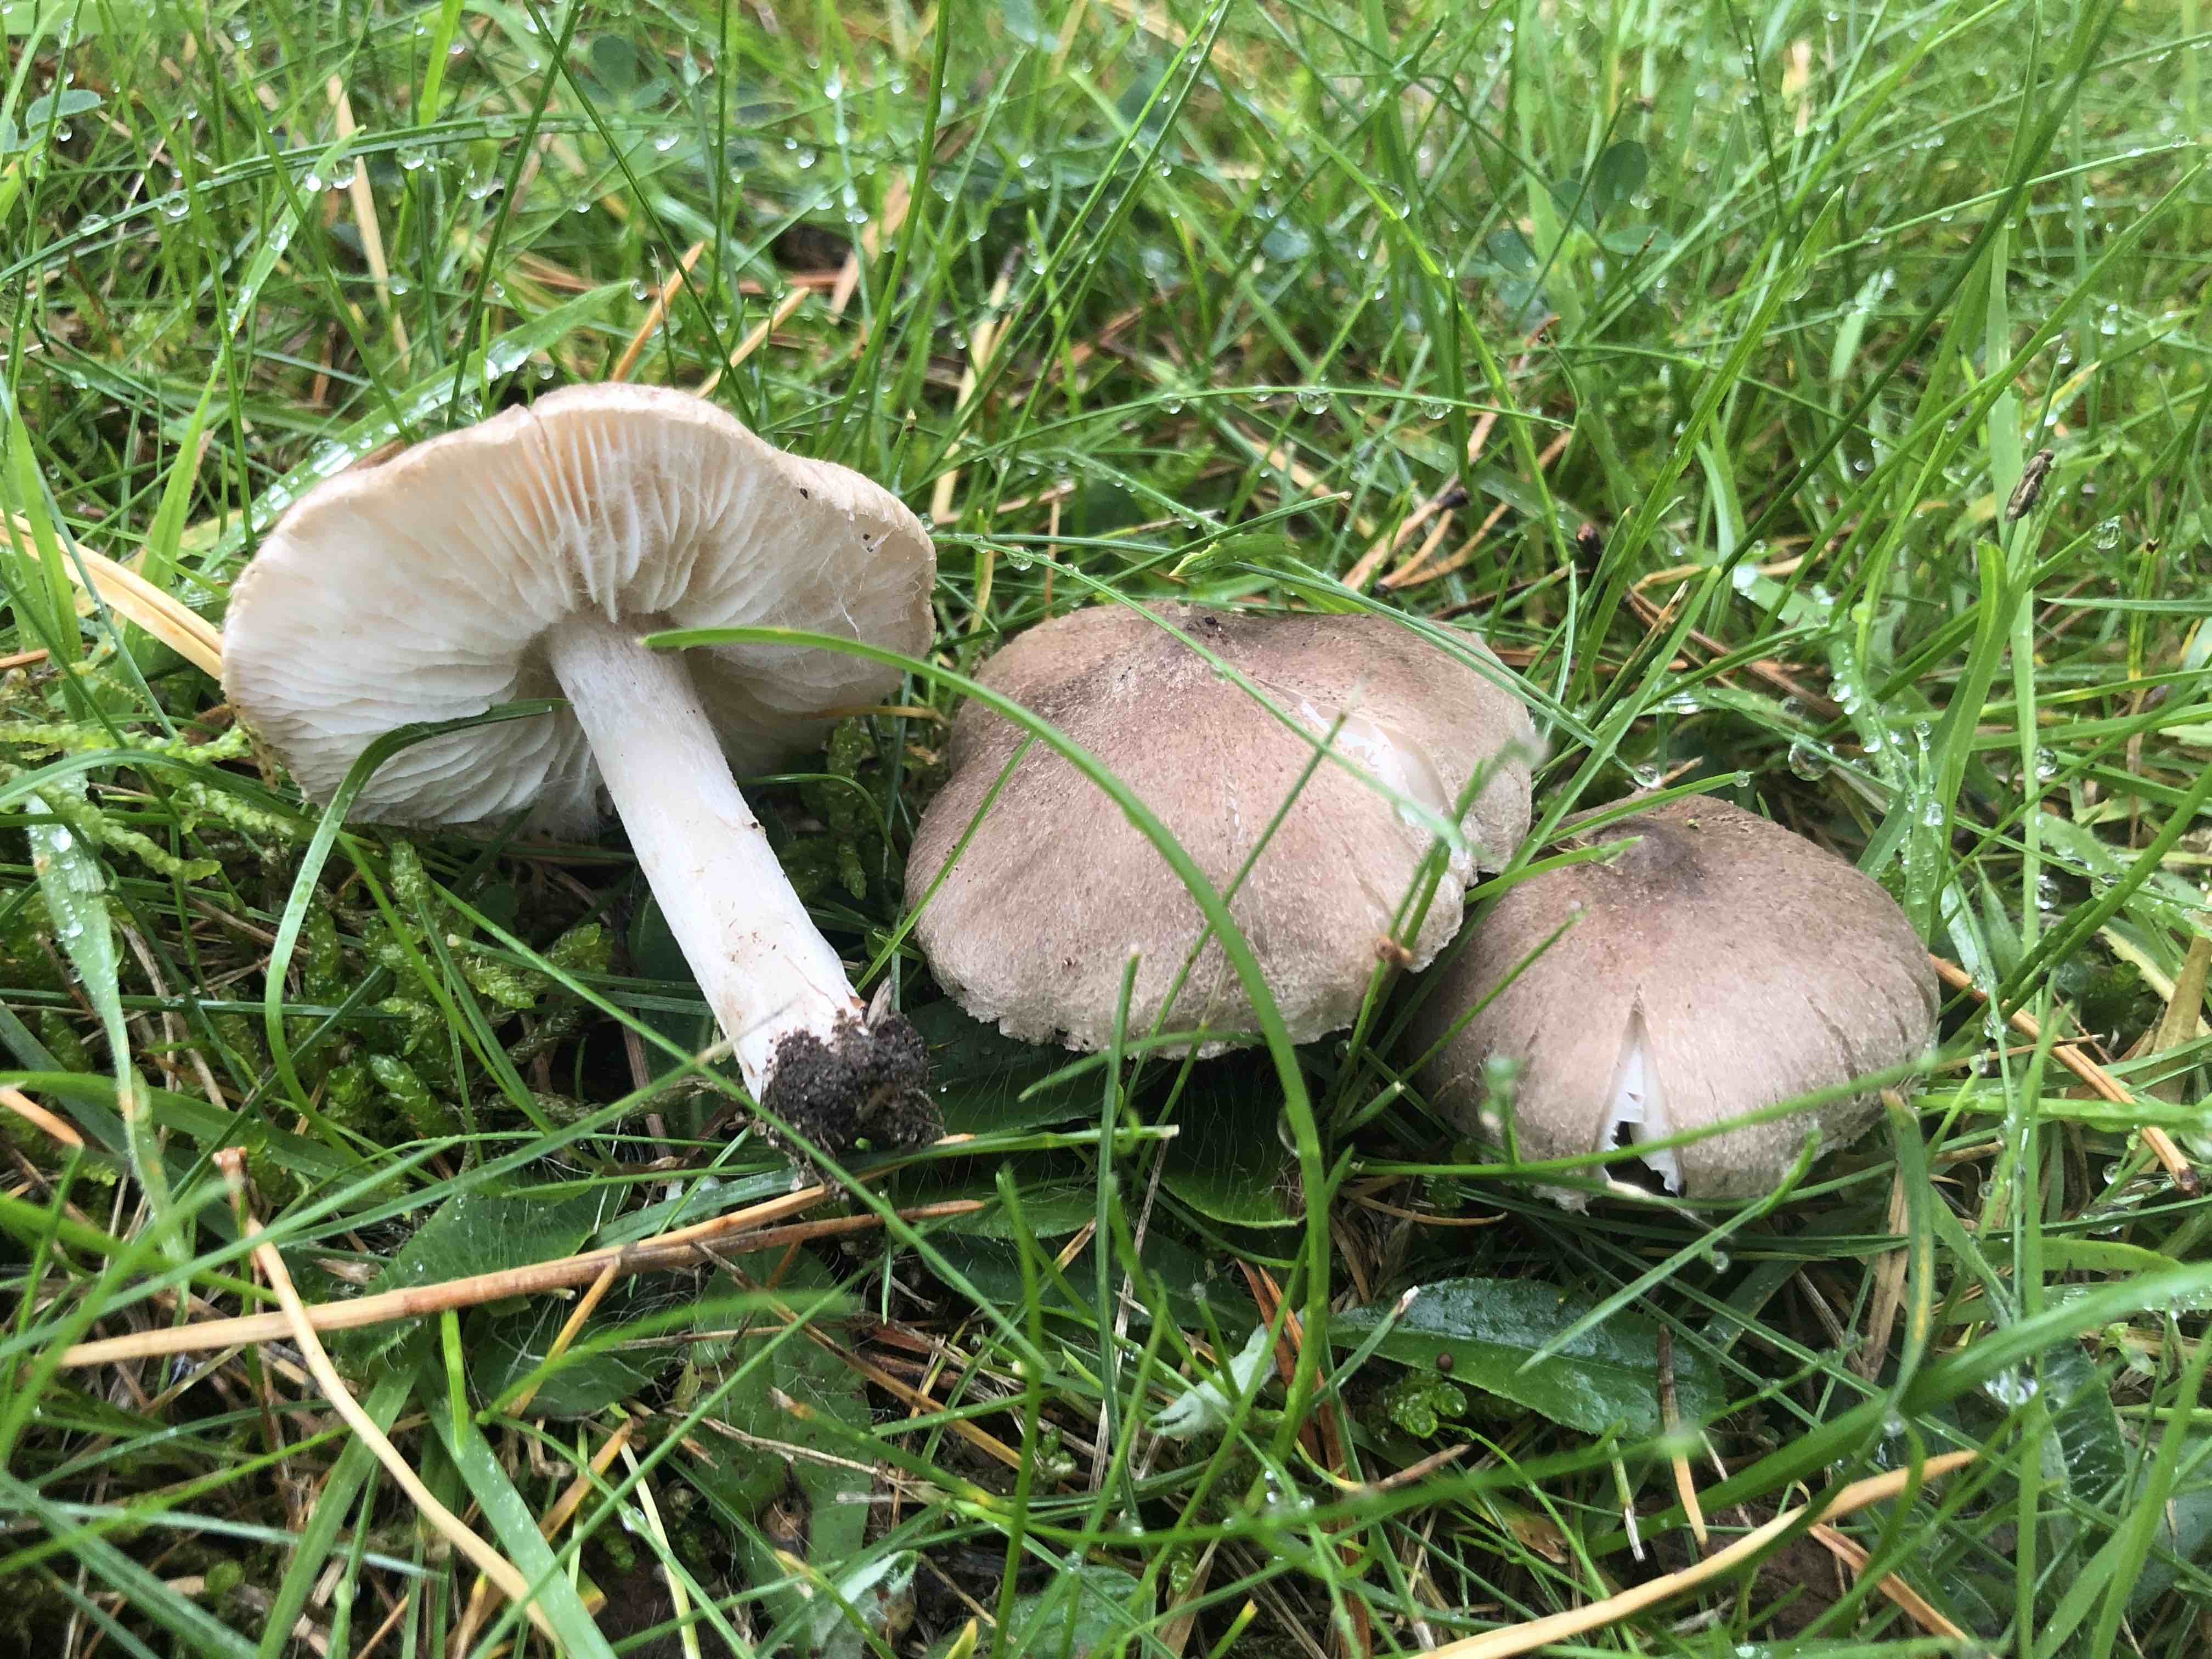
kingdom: Fungi
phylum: Basidiomycota
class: Agaricomycetes
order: Agaricales
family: Tricholomataceae
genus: Tricholoma
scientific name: Tricholoma terreum
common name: jordfarvet ridderhat
